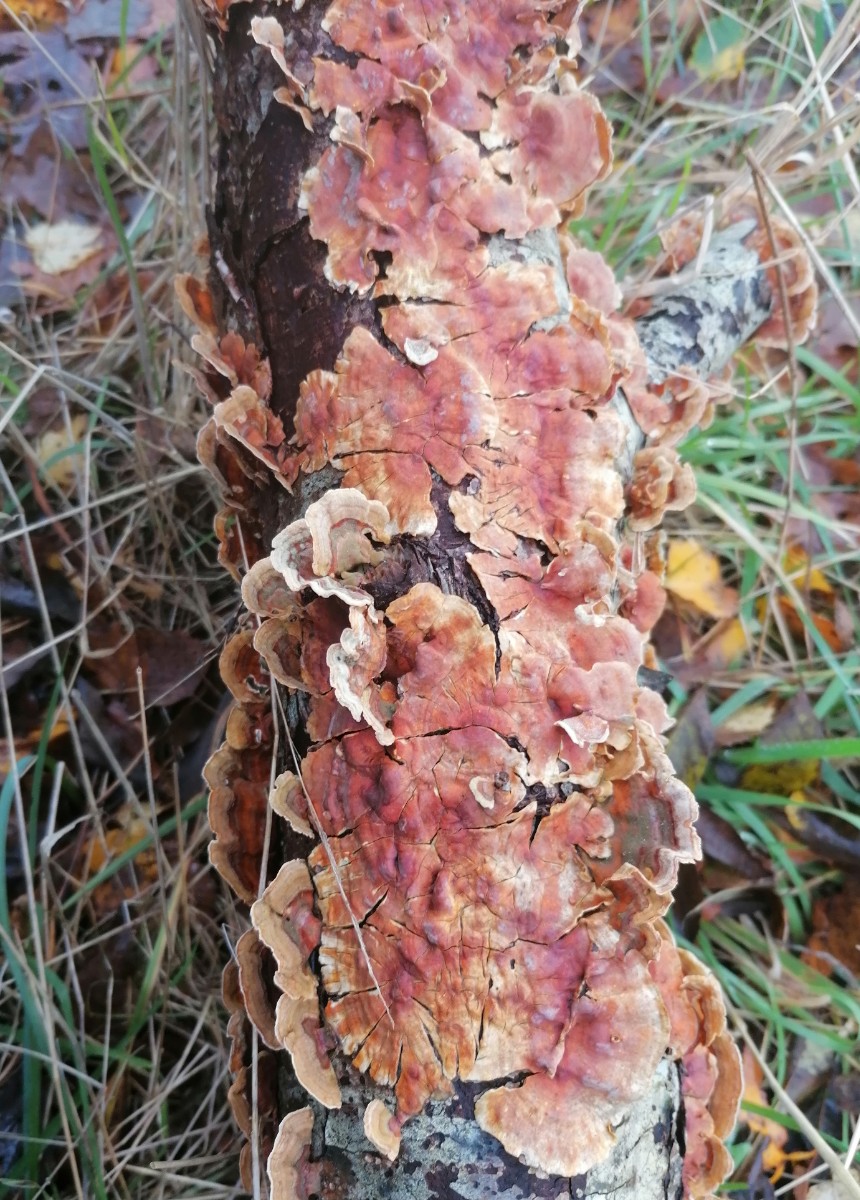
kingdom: Fungi
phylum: Basidiomycota
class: Agaricomycetes
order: Russulales
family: Stereaceae
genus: Stereum
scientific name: Stereum subtomentosum
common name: smuk lædersvamp
